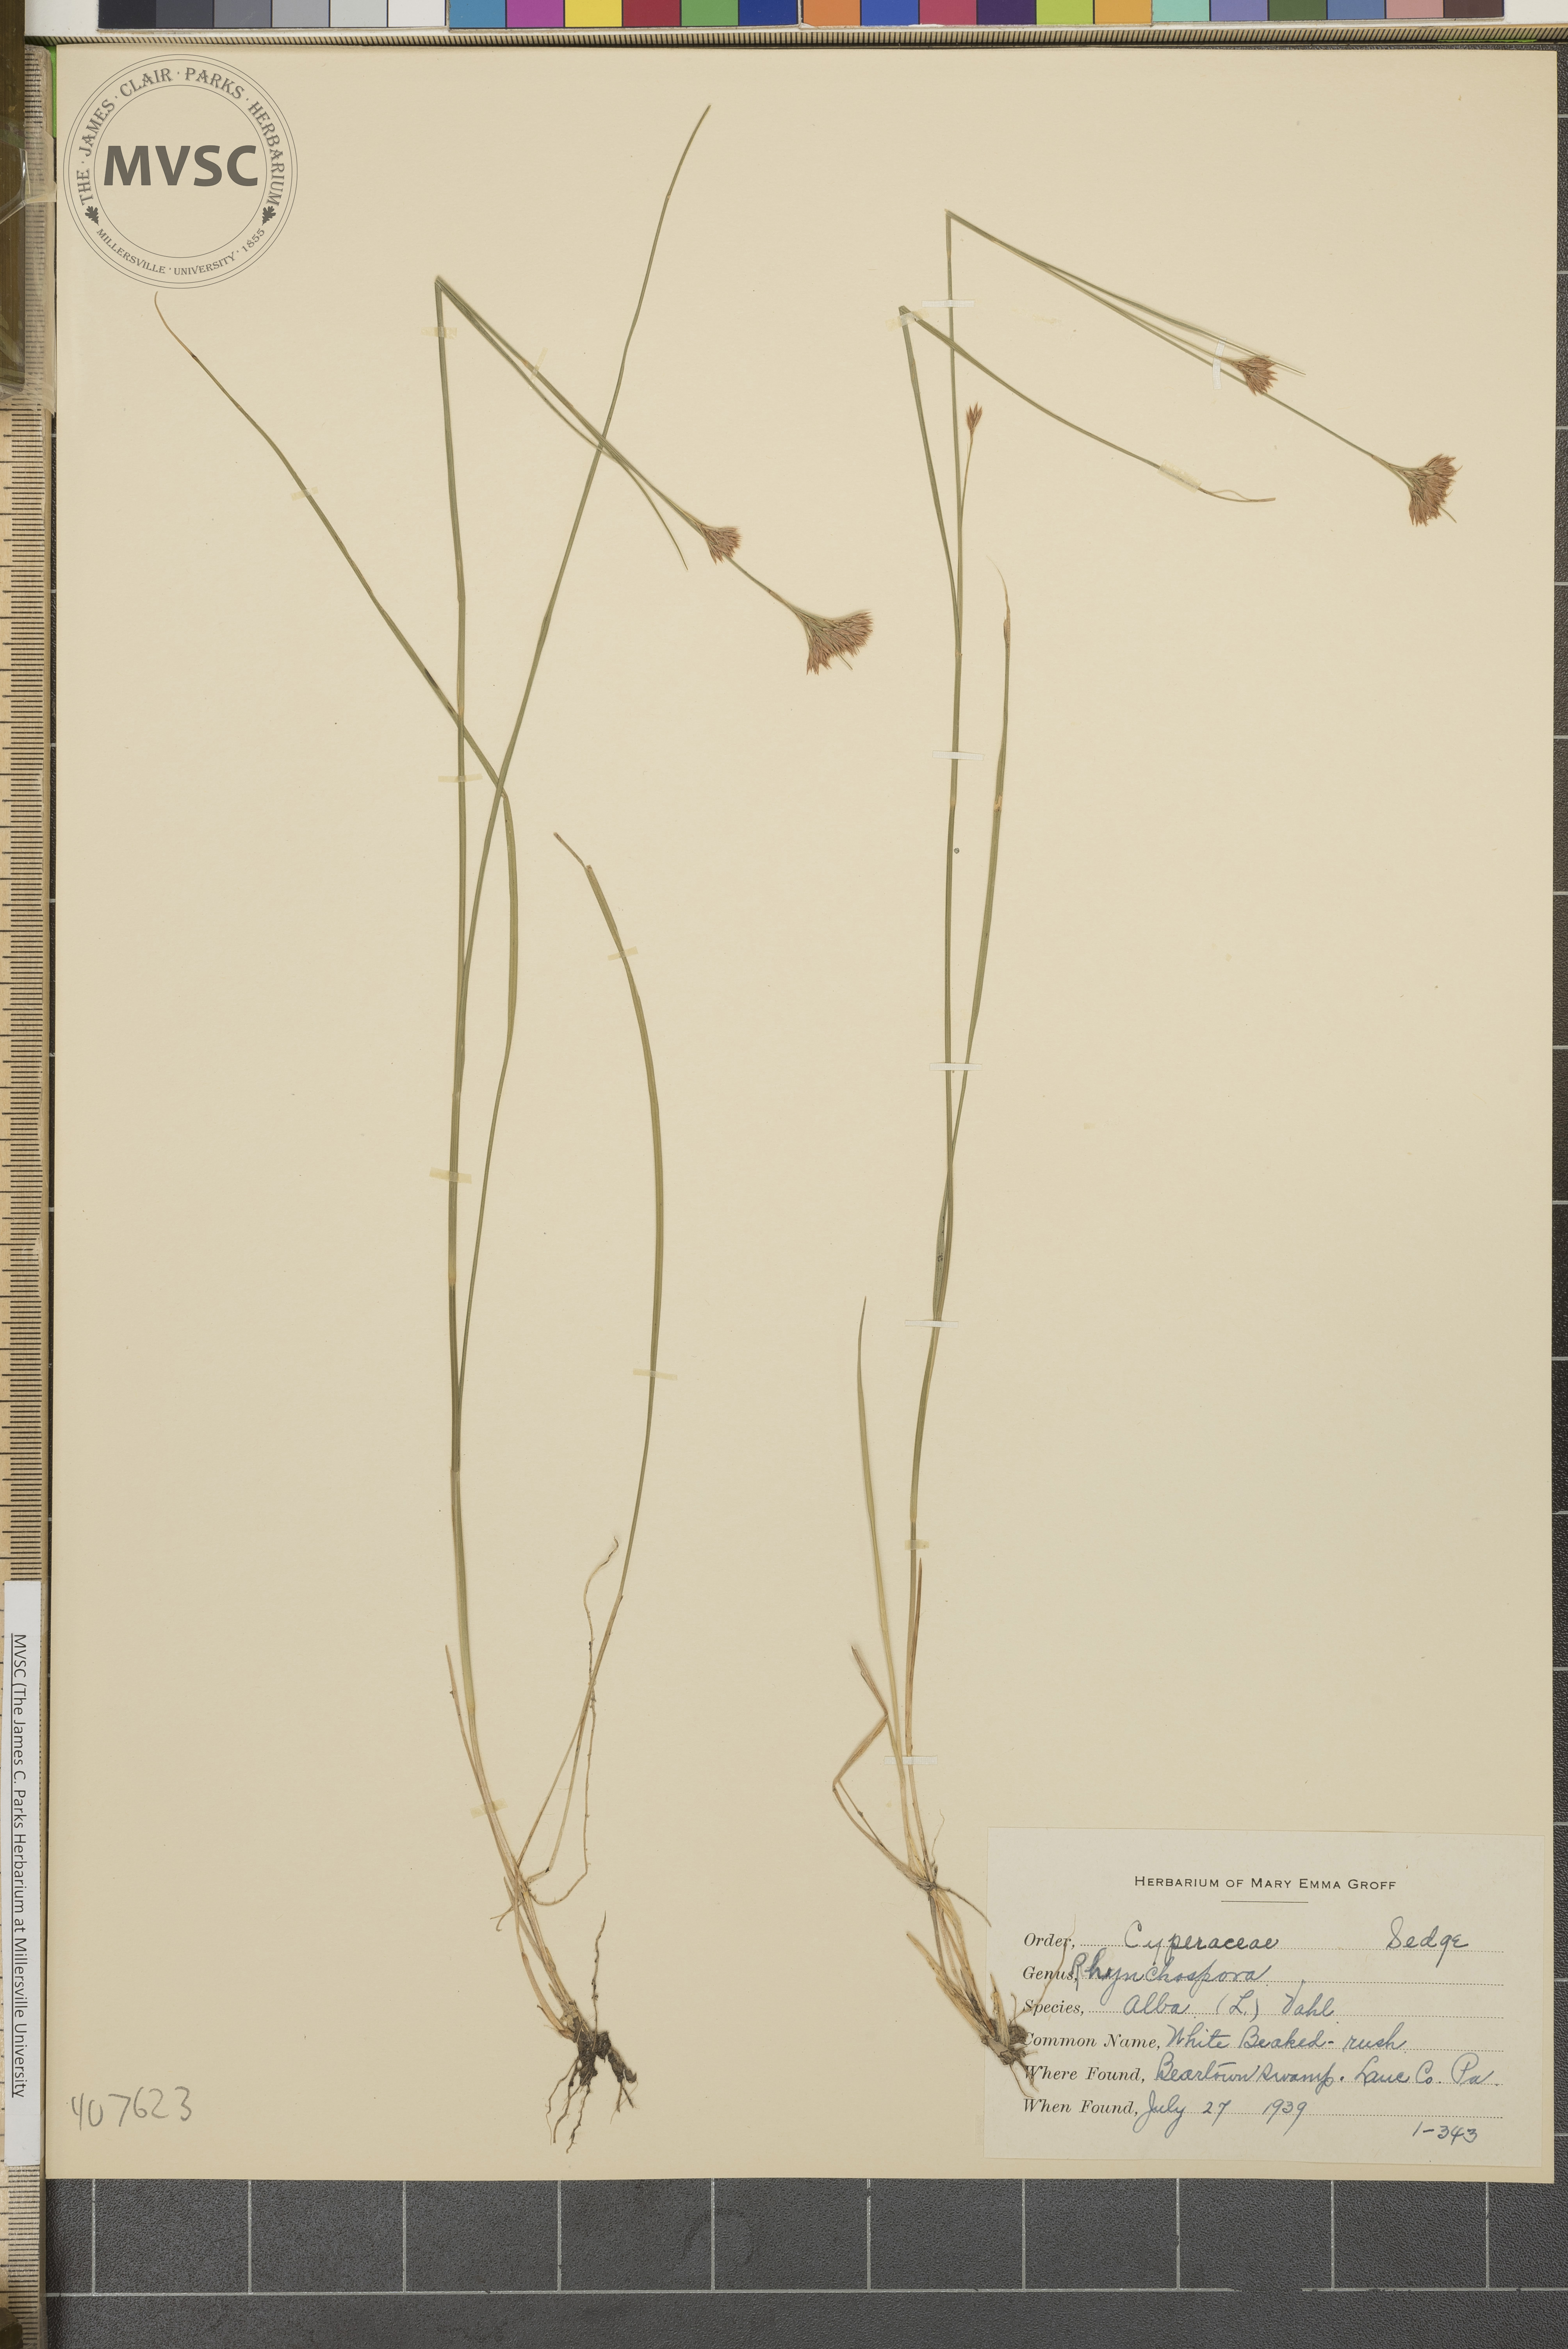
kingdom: Plantae
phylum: Tracheophyta
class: Liliopsida
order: Poales
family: Cyperaceae
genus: Rhynchospora
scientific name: Rhynchospora alba
